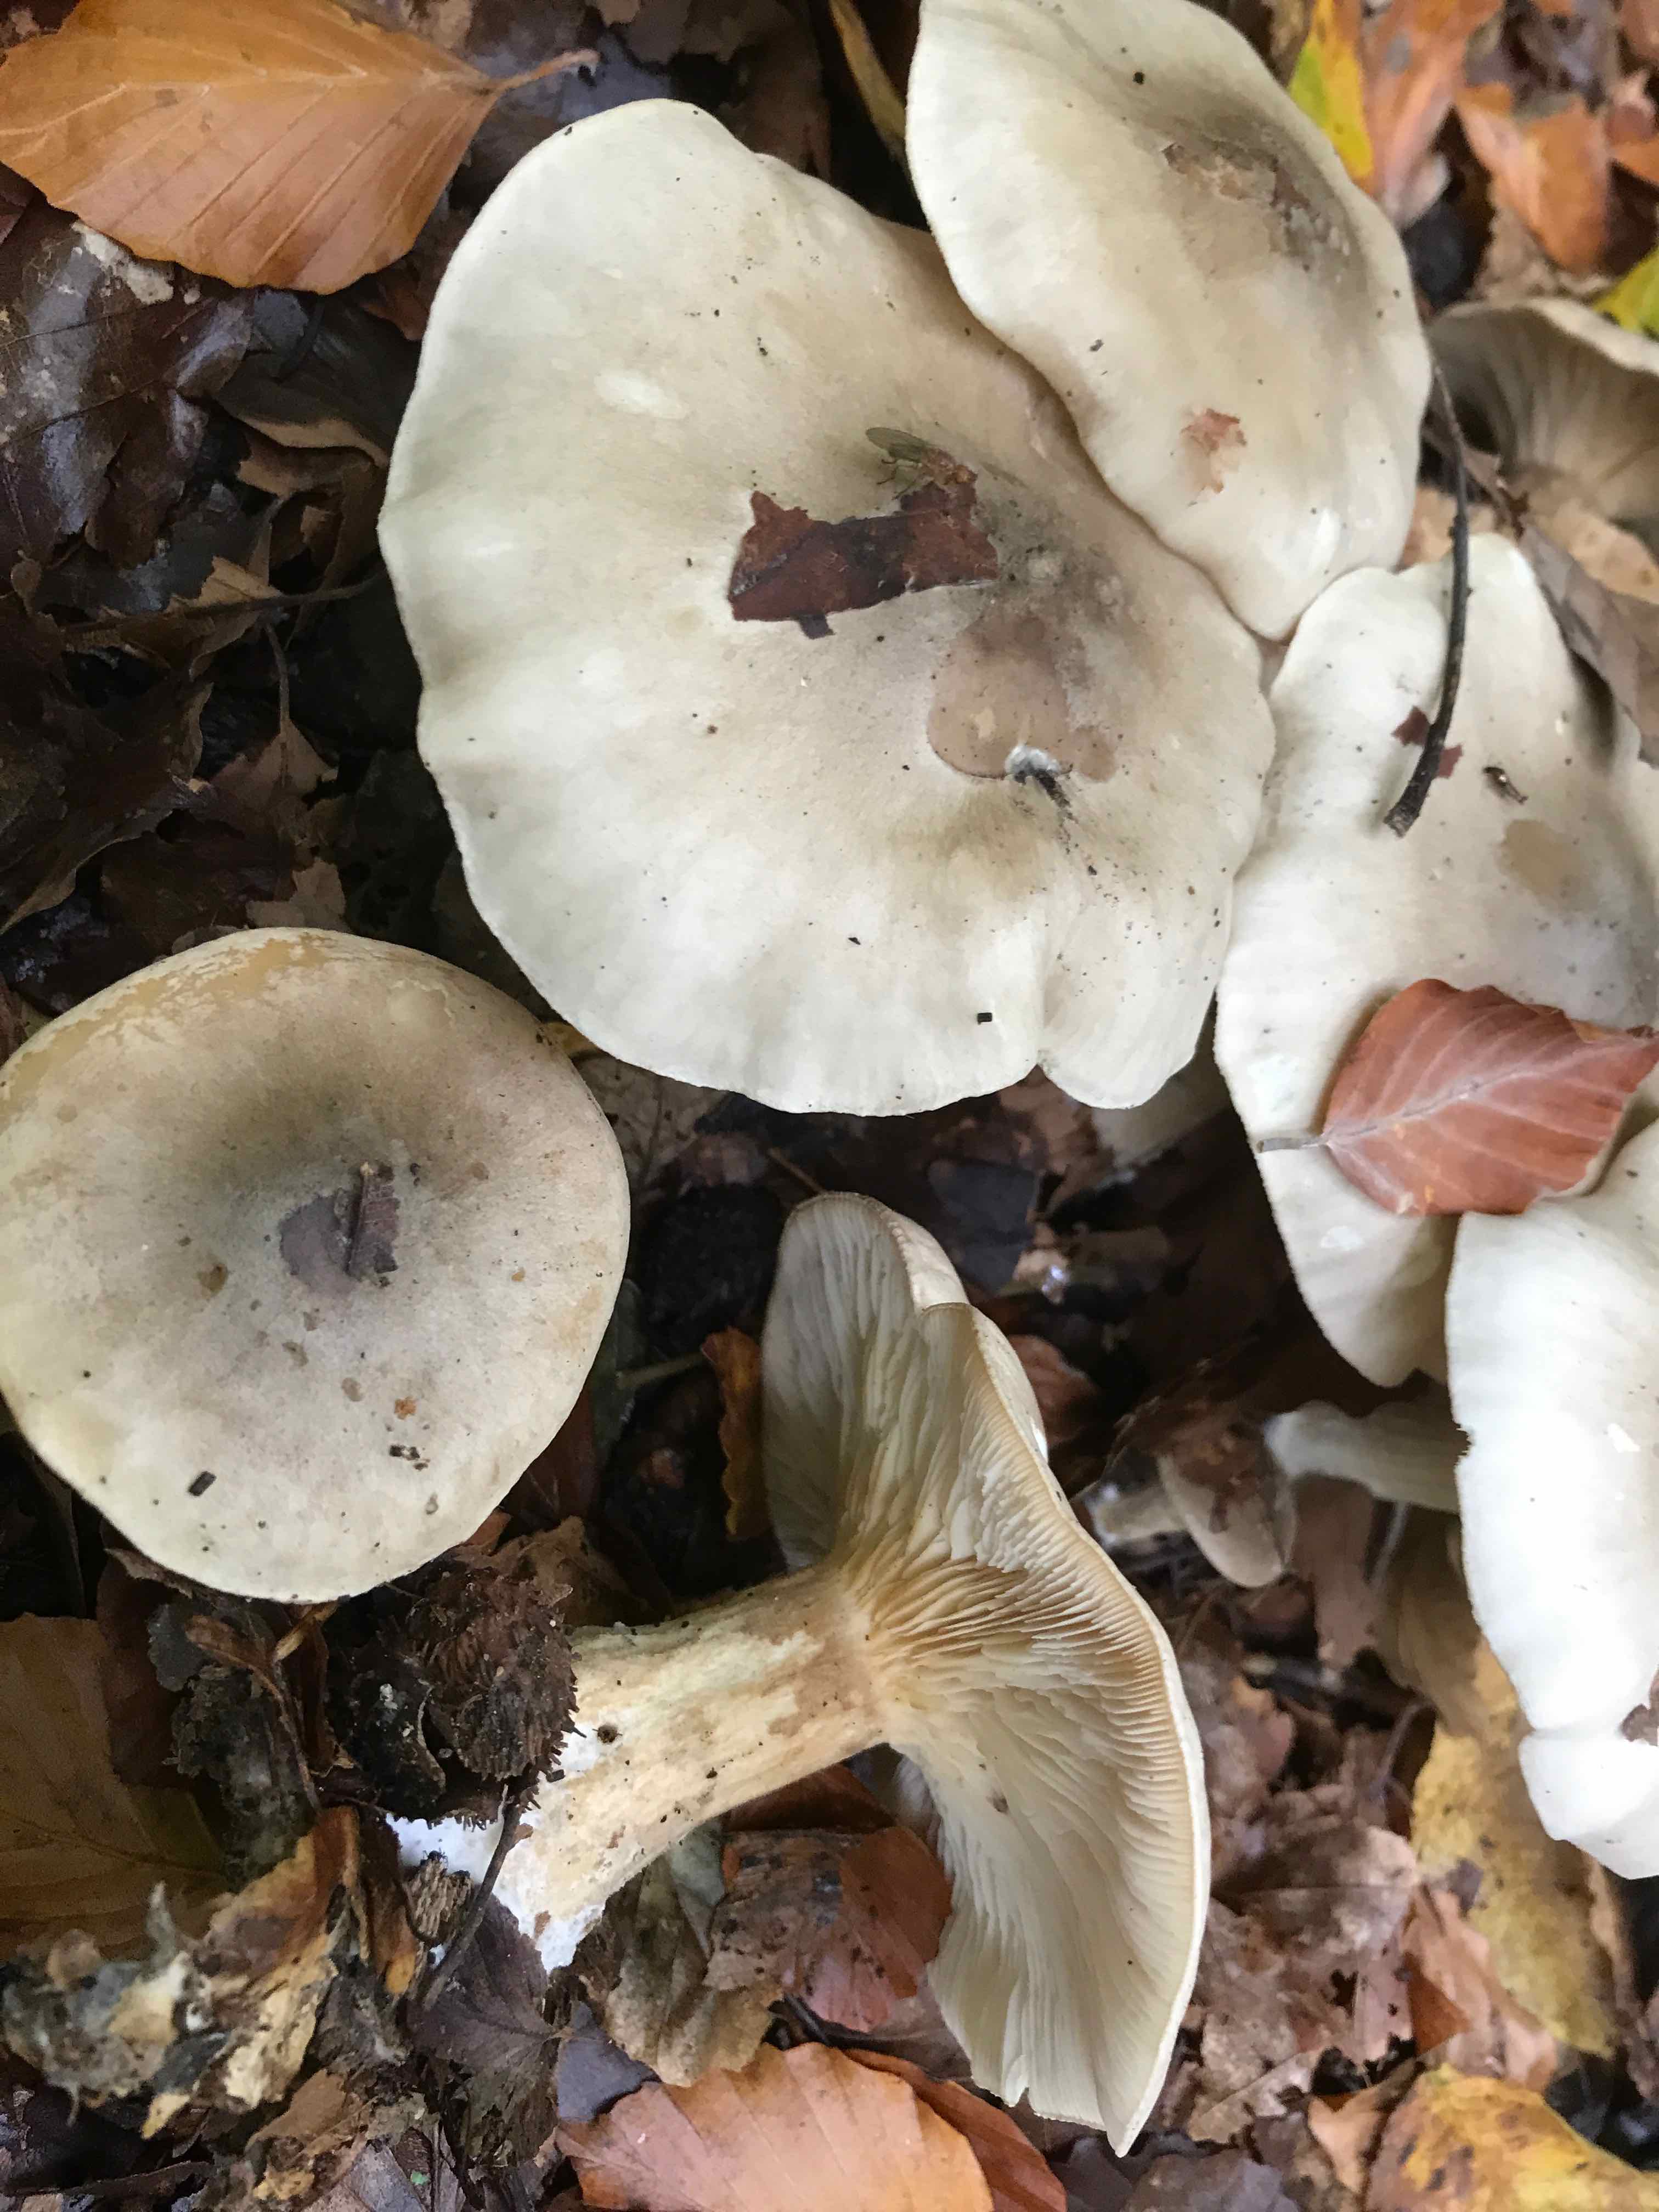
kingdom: Fungi
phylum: Basidiomycota
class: Agaricomycetes
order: Agaricales
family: Tricholomataceae
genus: Clitocybe
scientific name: Clitocybe nebularis
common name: tåge-tragthat
